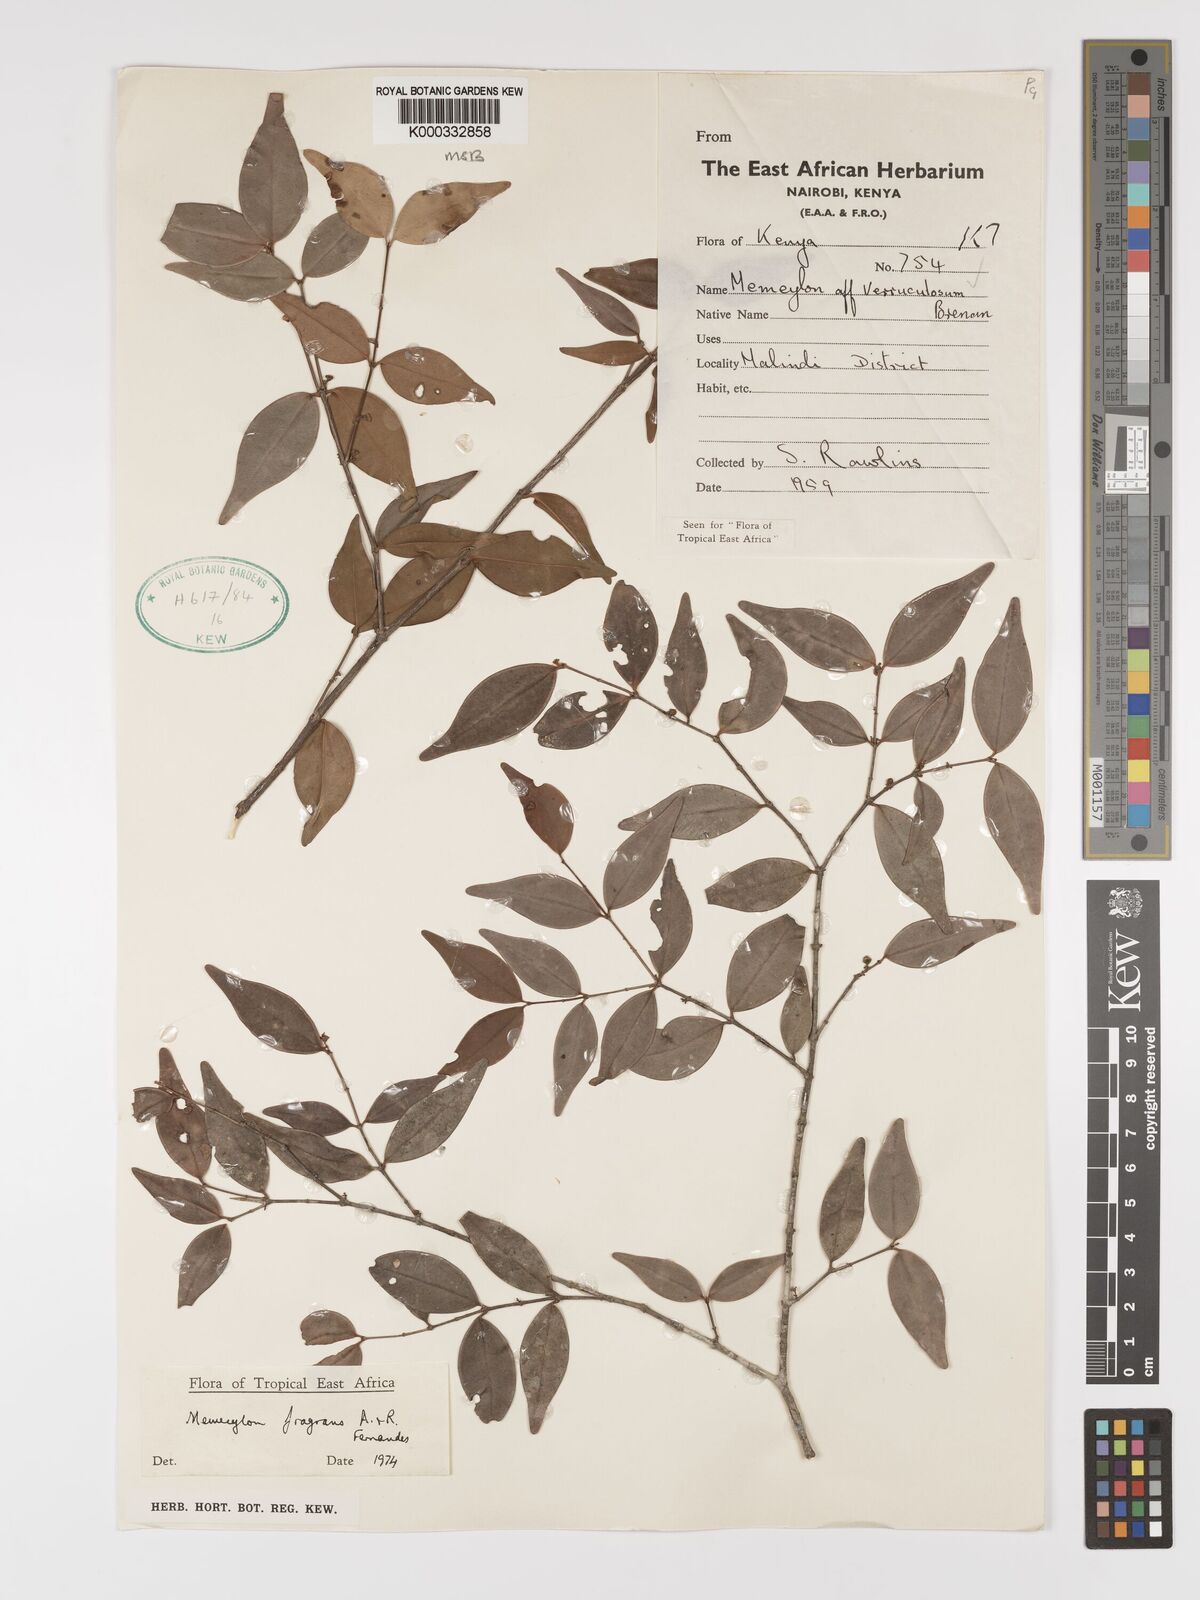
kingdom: Plantae
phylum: Tracheophyta
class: Magnoliopsida
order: Myrtales
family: Melastomataceae
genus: Memecylon
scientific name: Memecylon fragrans
